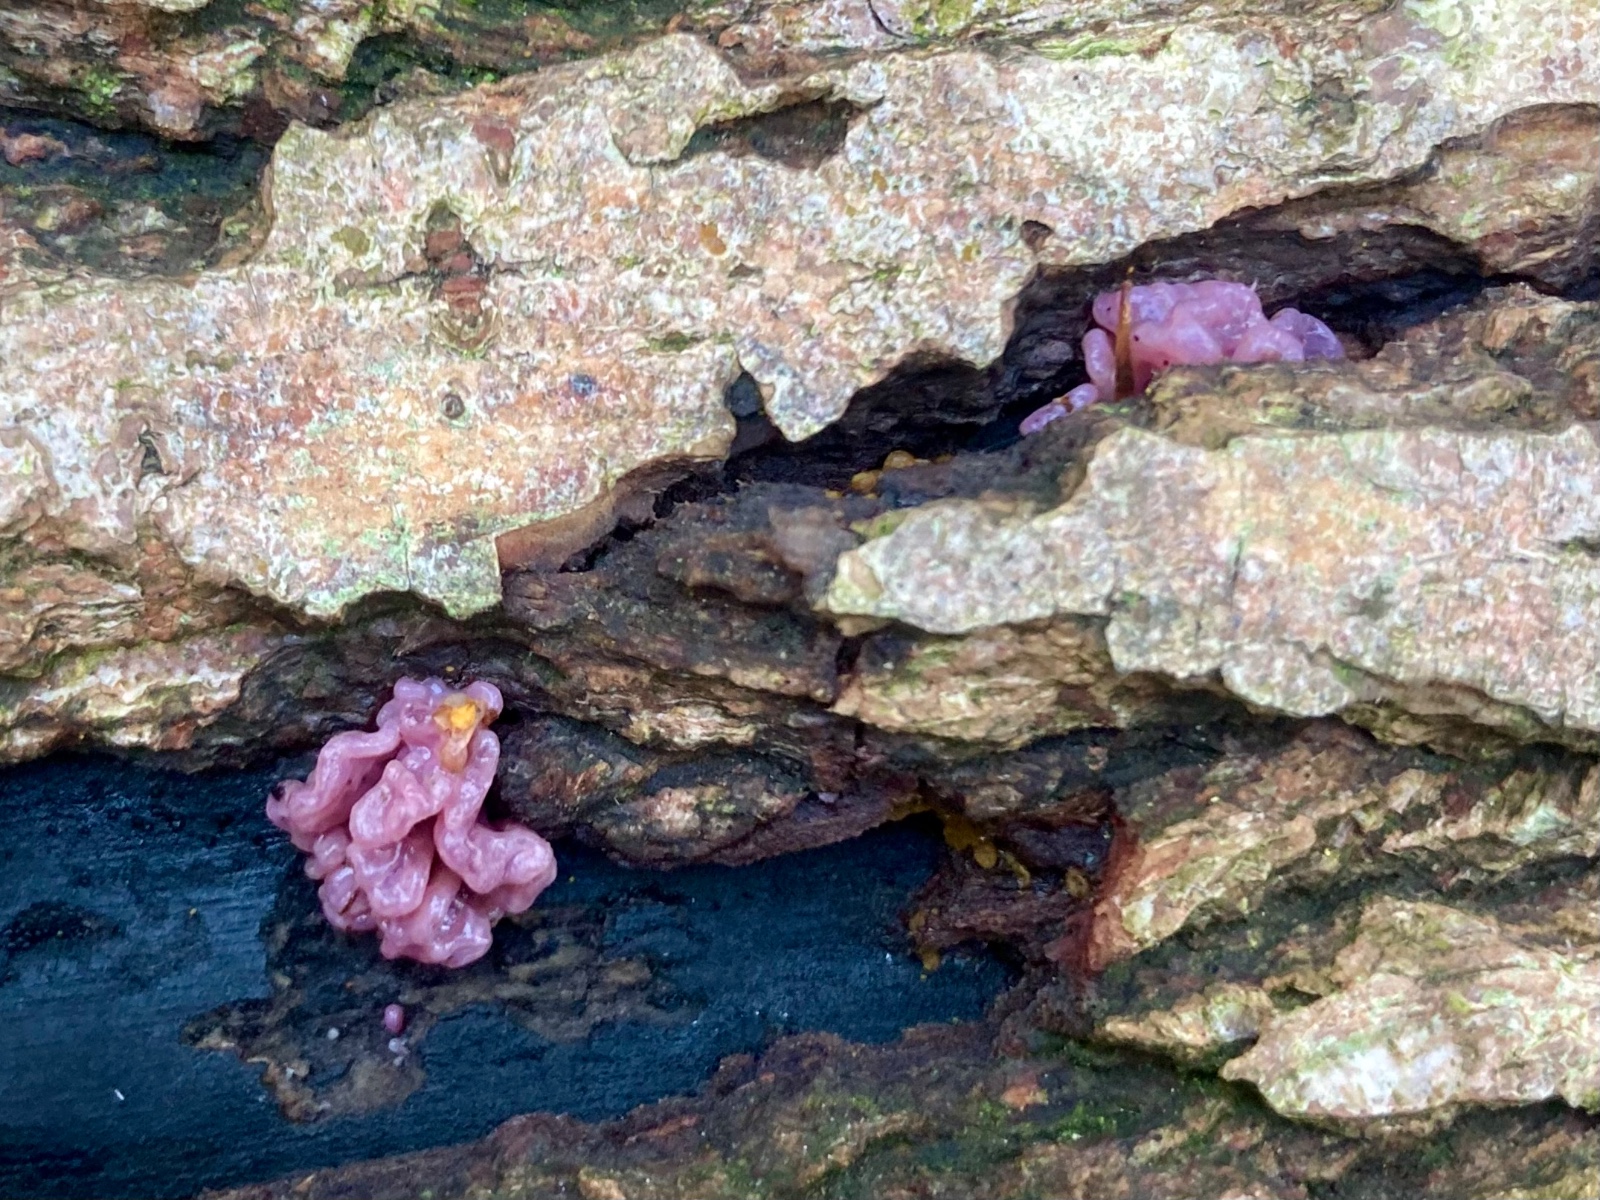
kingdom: Fungi
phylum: Ascomycota
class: Leotiomycetes
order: Helotiales
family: Gelatinodiscaceae
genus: Ascocoryne
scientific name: Ascocoryne sarcoides
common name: rødlilla sejskive
